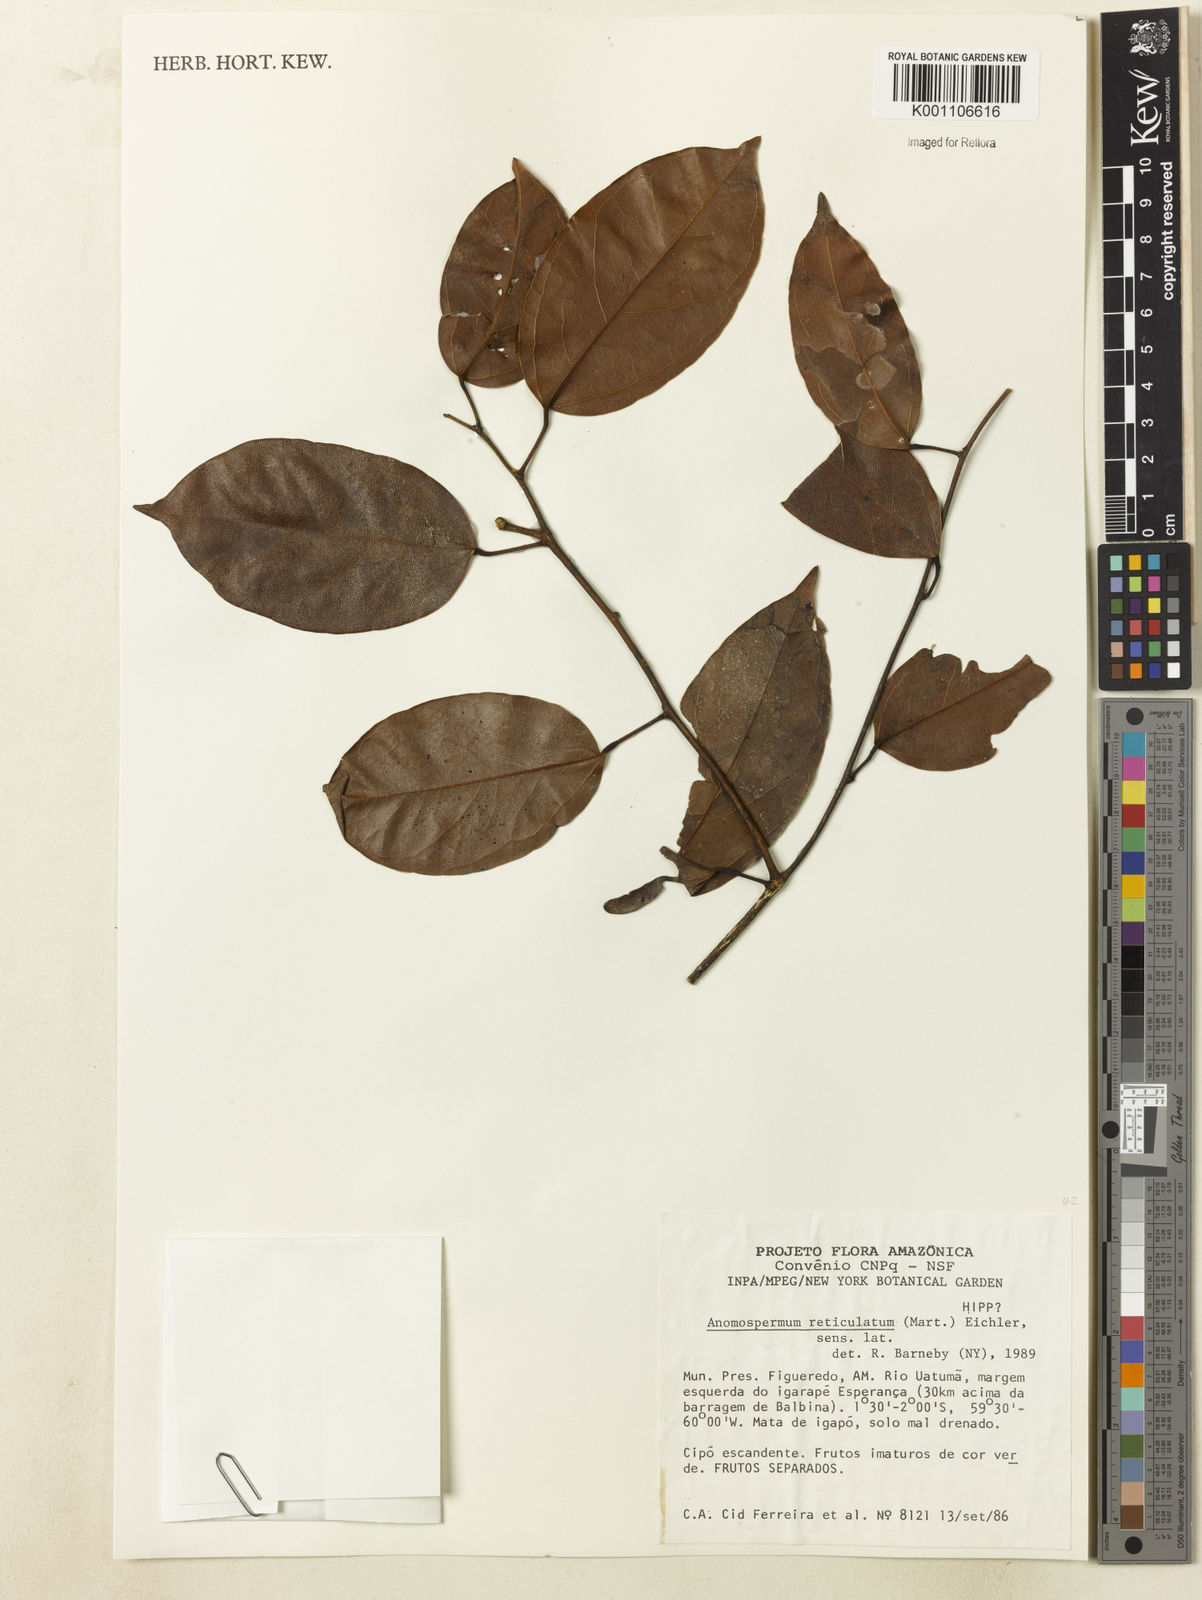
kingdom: Plantae
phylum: Tracheophyta
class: Magnoliopsida
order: Ranunculales
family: Menispermaceae
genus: Anomospermum
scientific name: Anomospermum reticulatum
